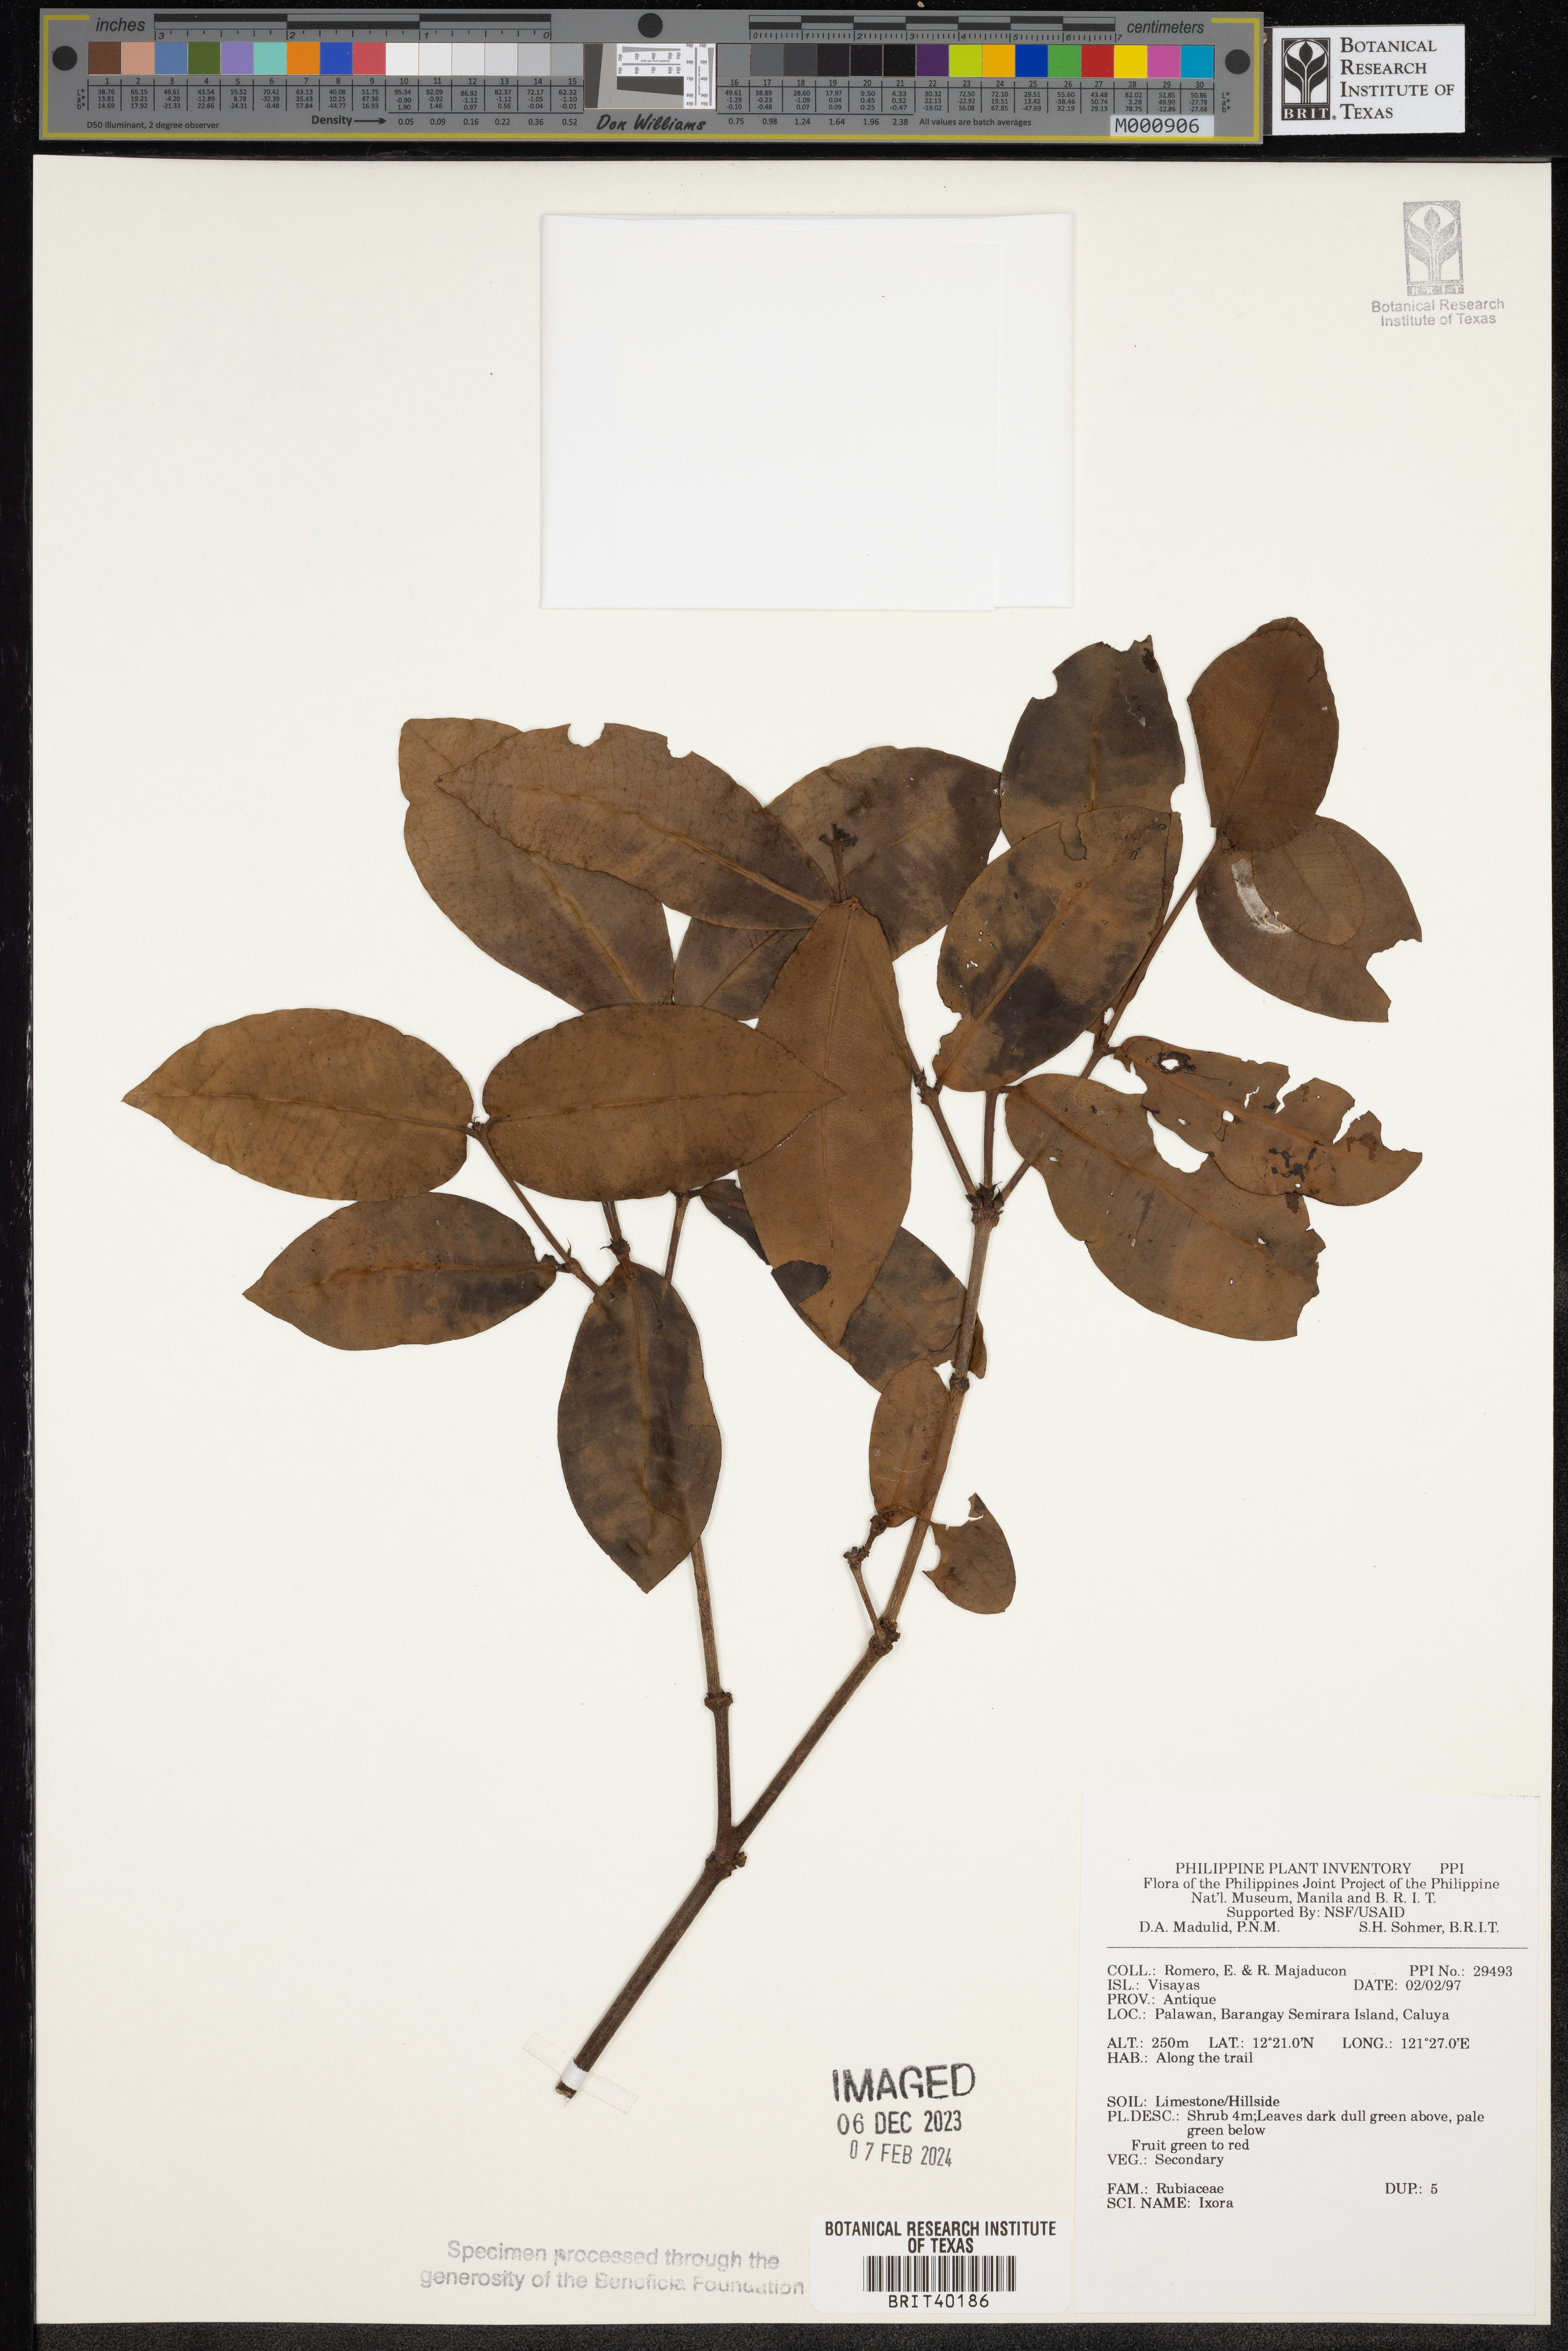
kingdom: Plantae
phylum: Tracheophyta
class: Magnoliopsida
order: Gentianales
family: Rubiaceae
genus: Ixora
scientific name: Ixora
